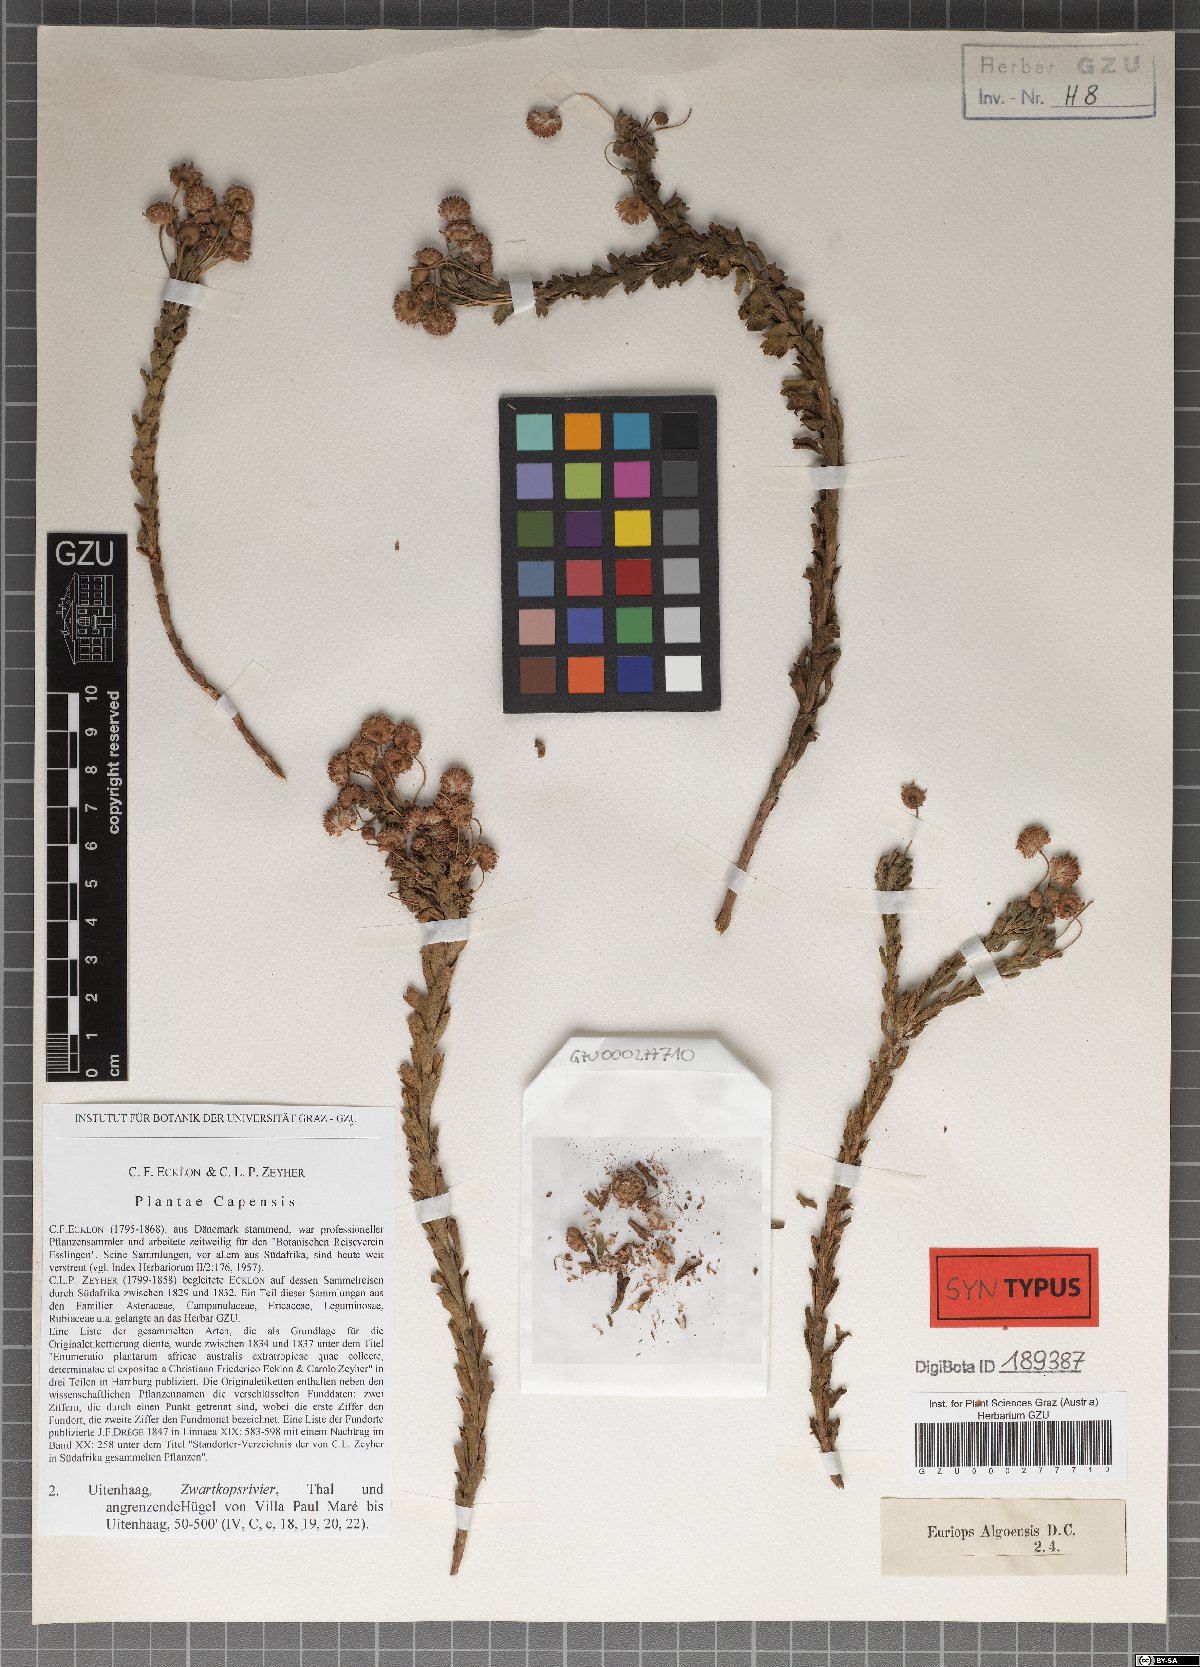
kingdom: Plantae
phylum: Tracheophyta
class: Magnoliopsida
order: Asterales
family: Asteraceae
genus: Euryops
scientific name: Euryops algoensis
